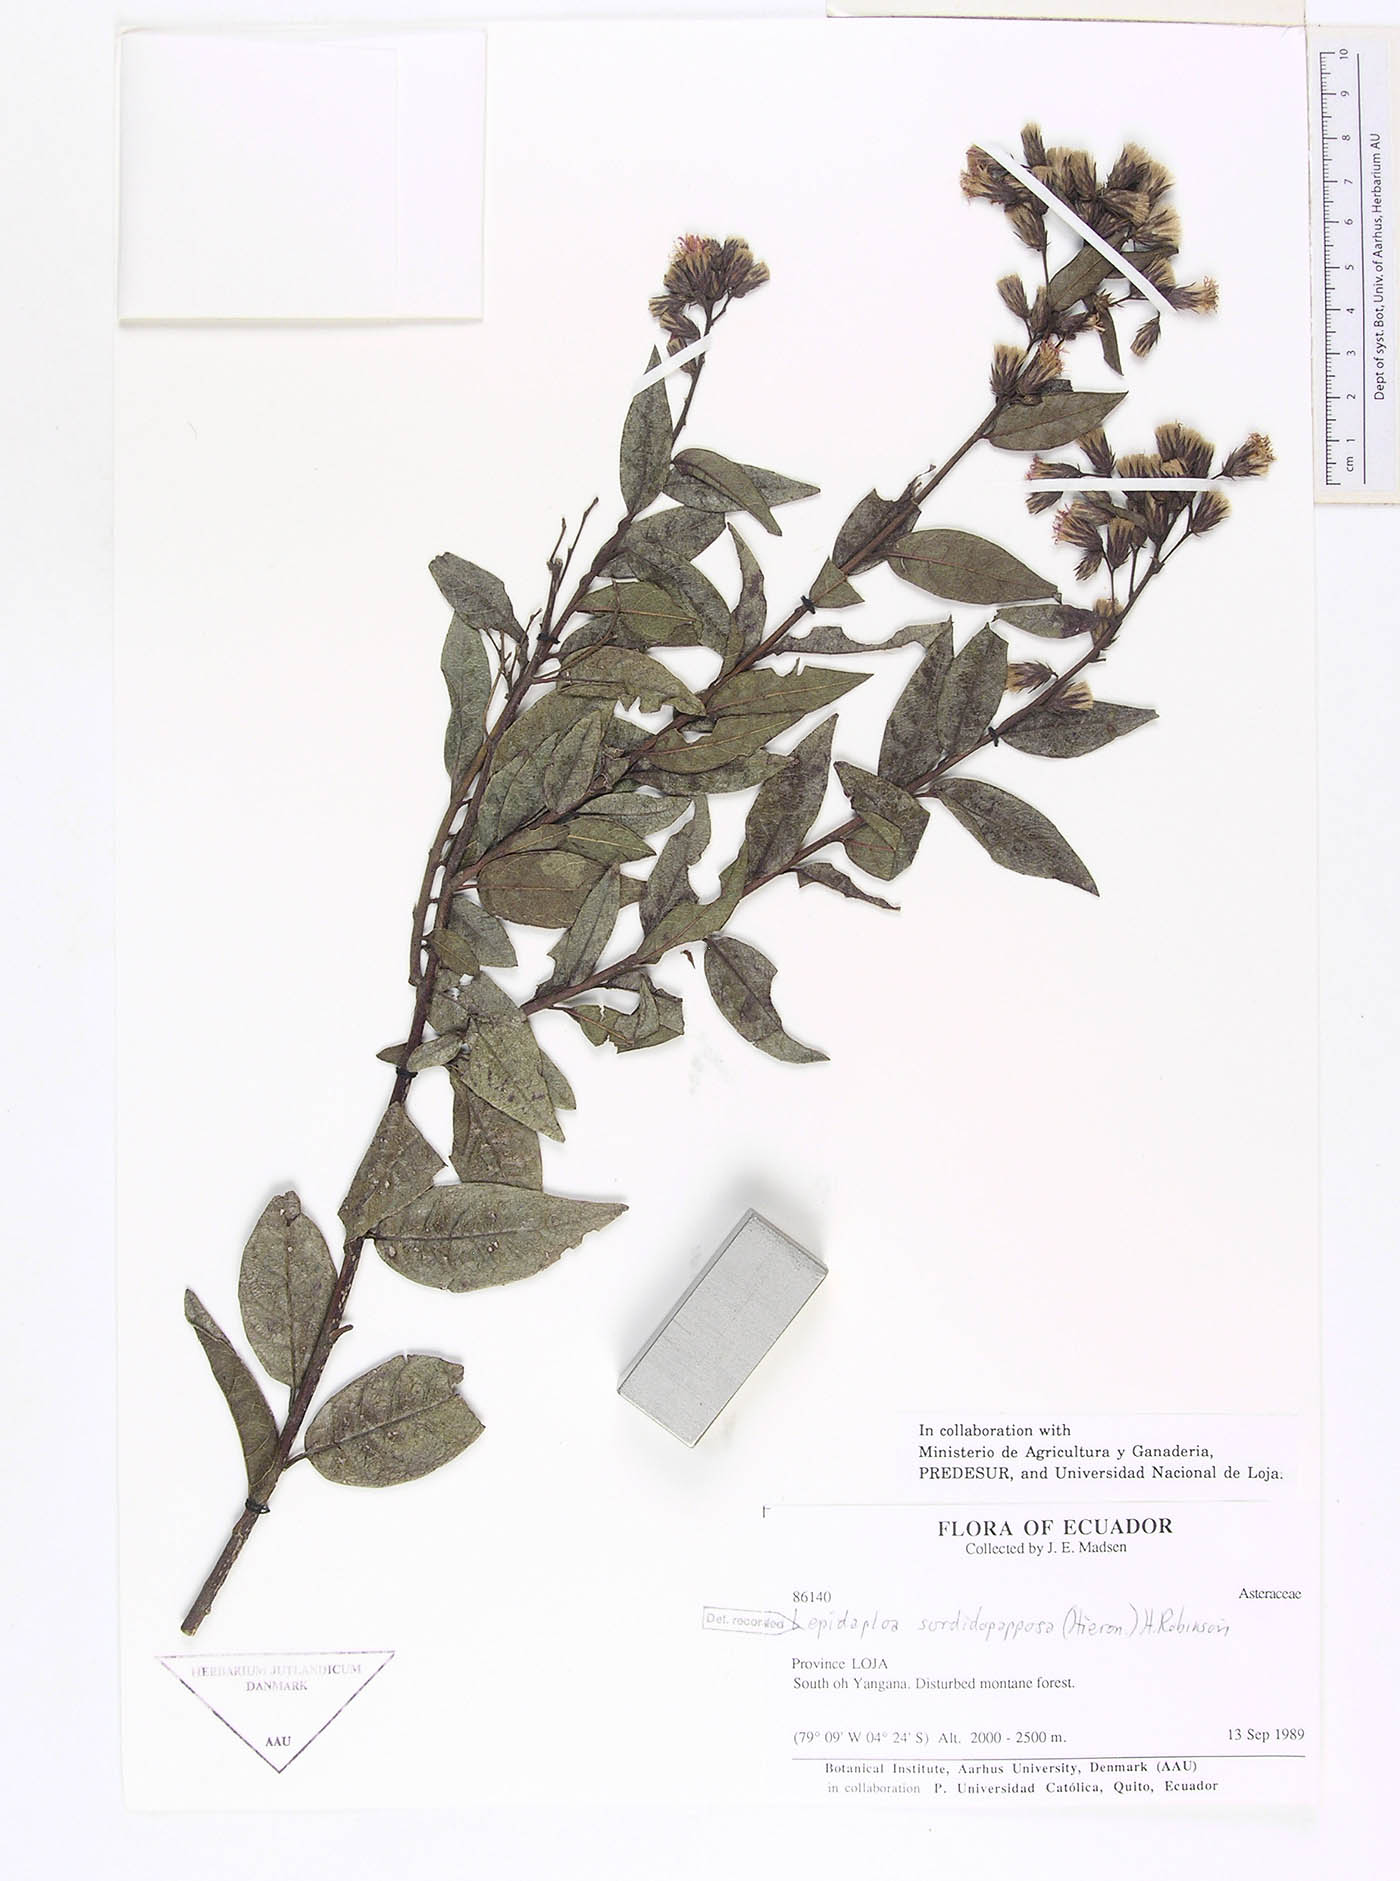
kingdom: Plantae
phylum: Tracheophyta
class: Magnoliopsida
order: Asterales
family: Asteraceae
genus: Lepidaploa
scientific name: Lepidaploa sordidopapposa
